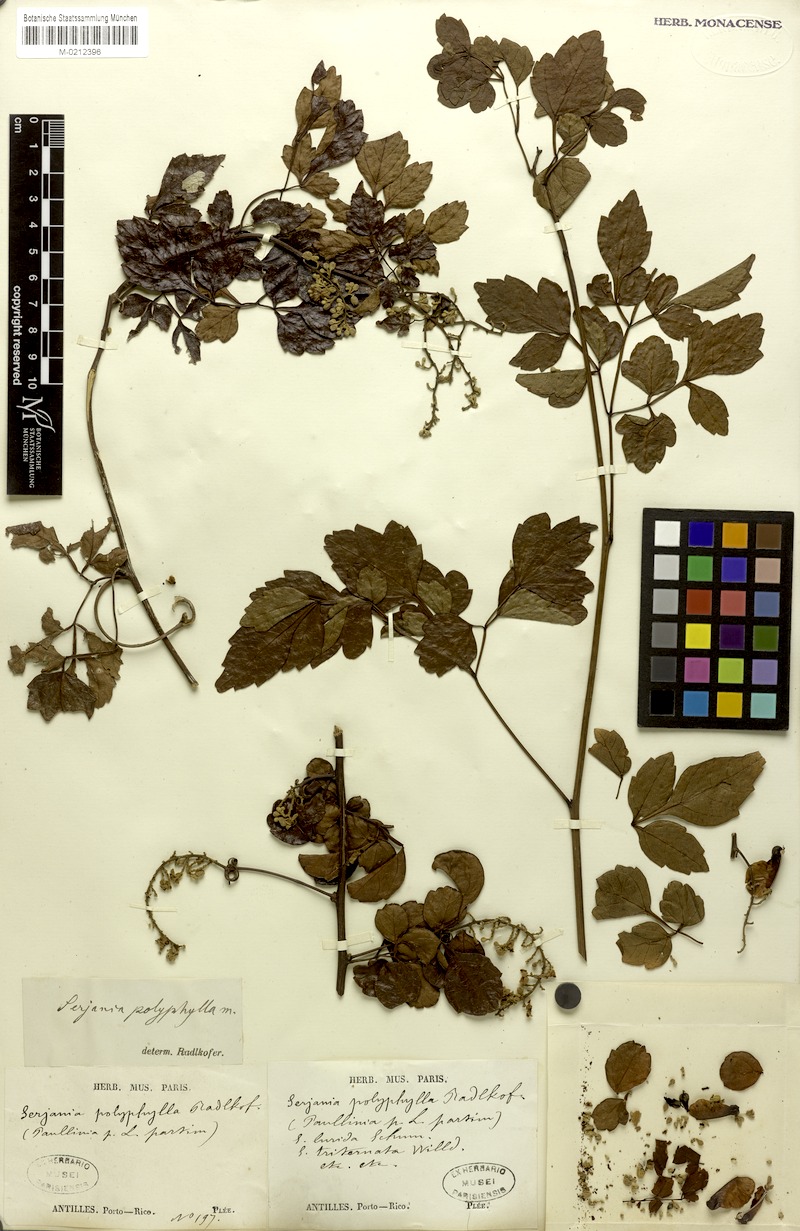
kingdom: Plantae
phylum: Tracheophyta
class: Magnoliopsida
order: Sapindales
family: Sapindaceae
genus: Serjania
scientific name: Serjania polyphylla
